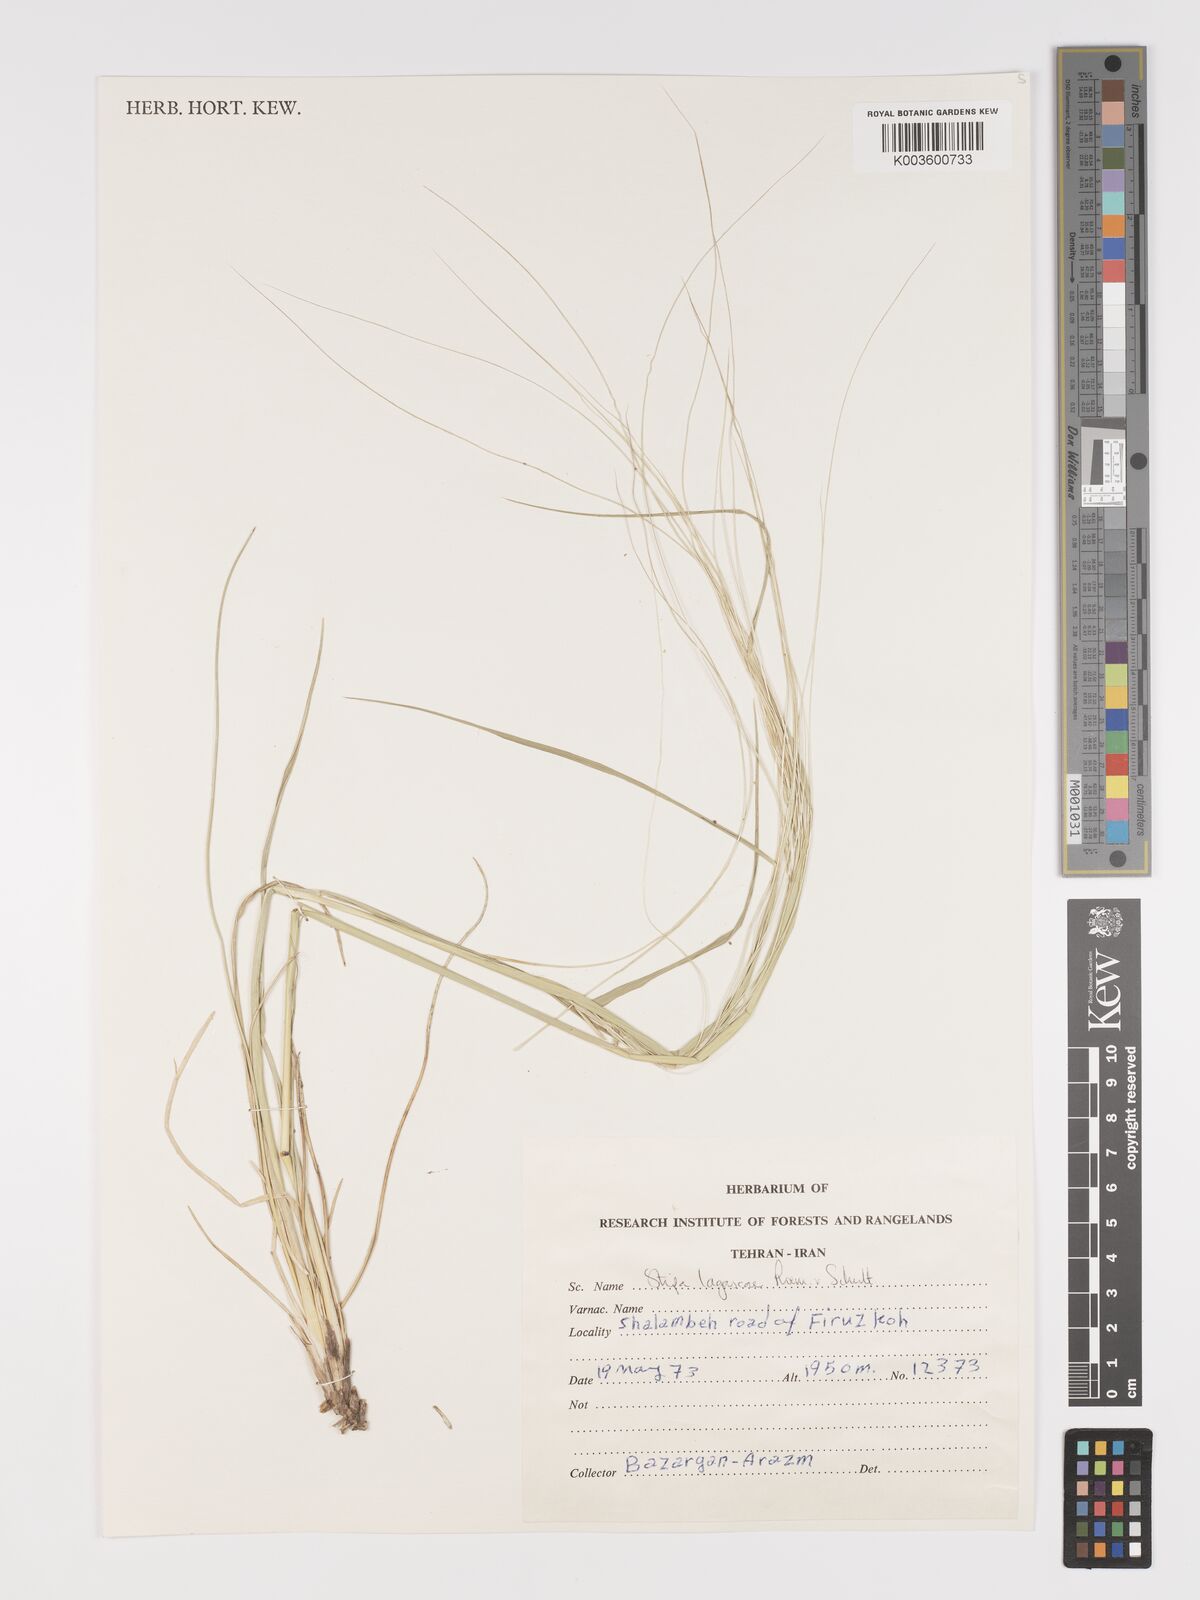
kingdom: Plantae
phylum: Tracheophyta
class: Liliopsida
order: Poales
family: Poaceae
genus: Stipa
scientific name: Stipa holosericea
